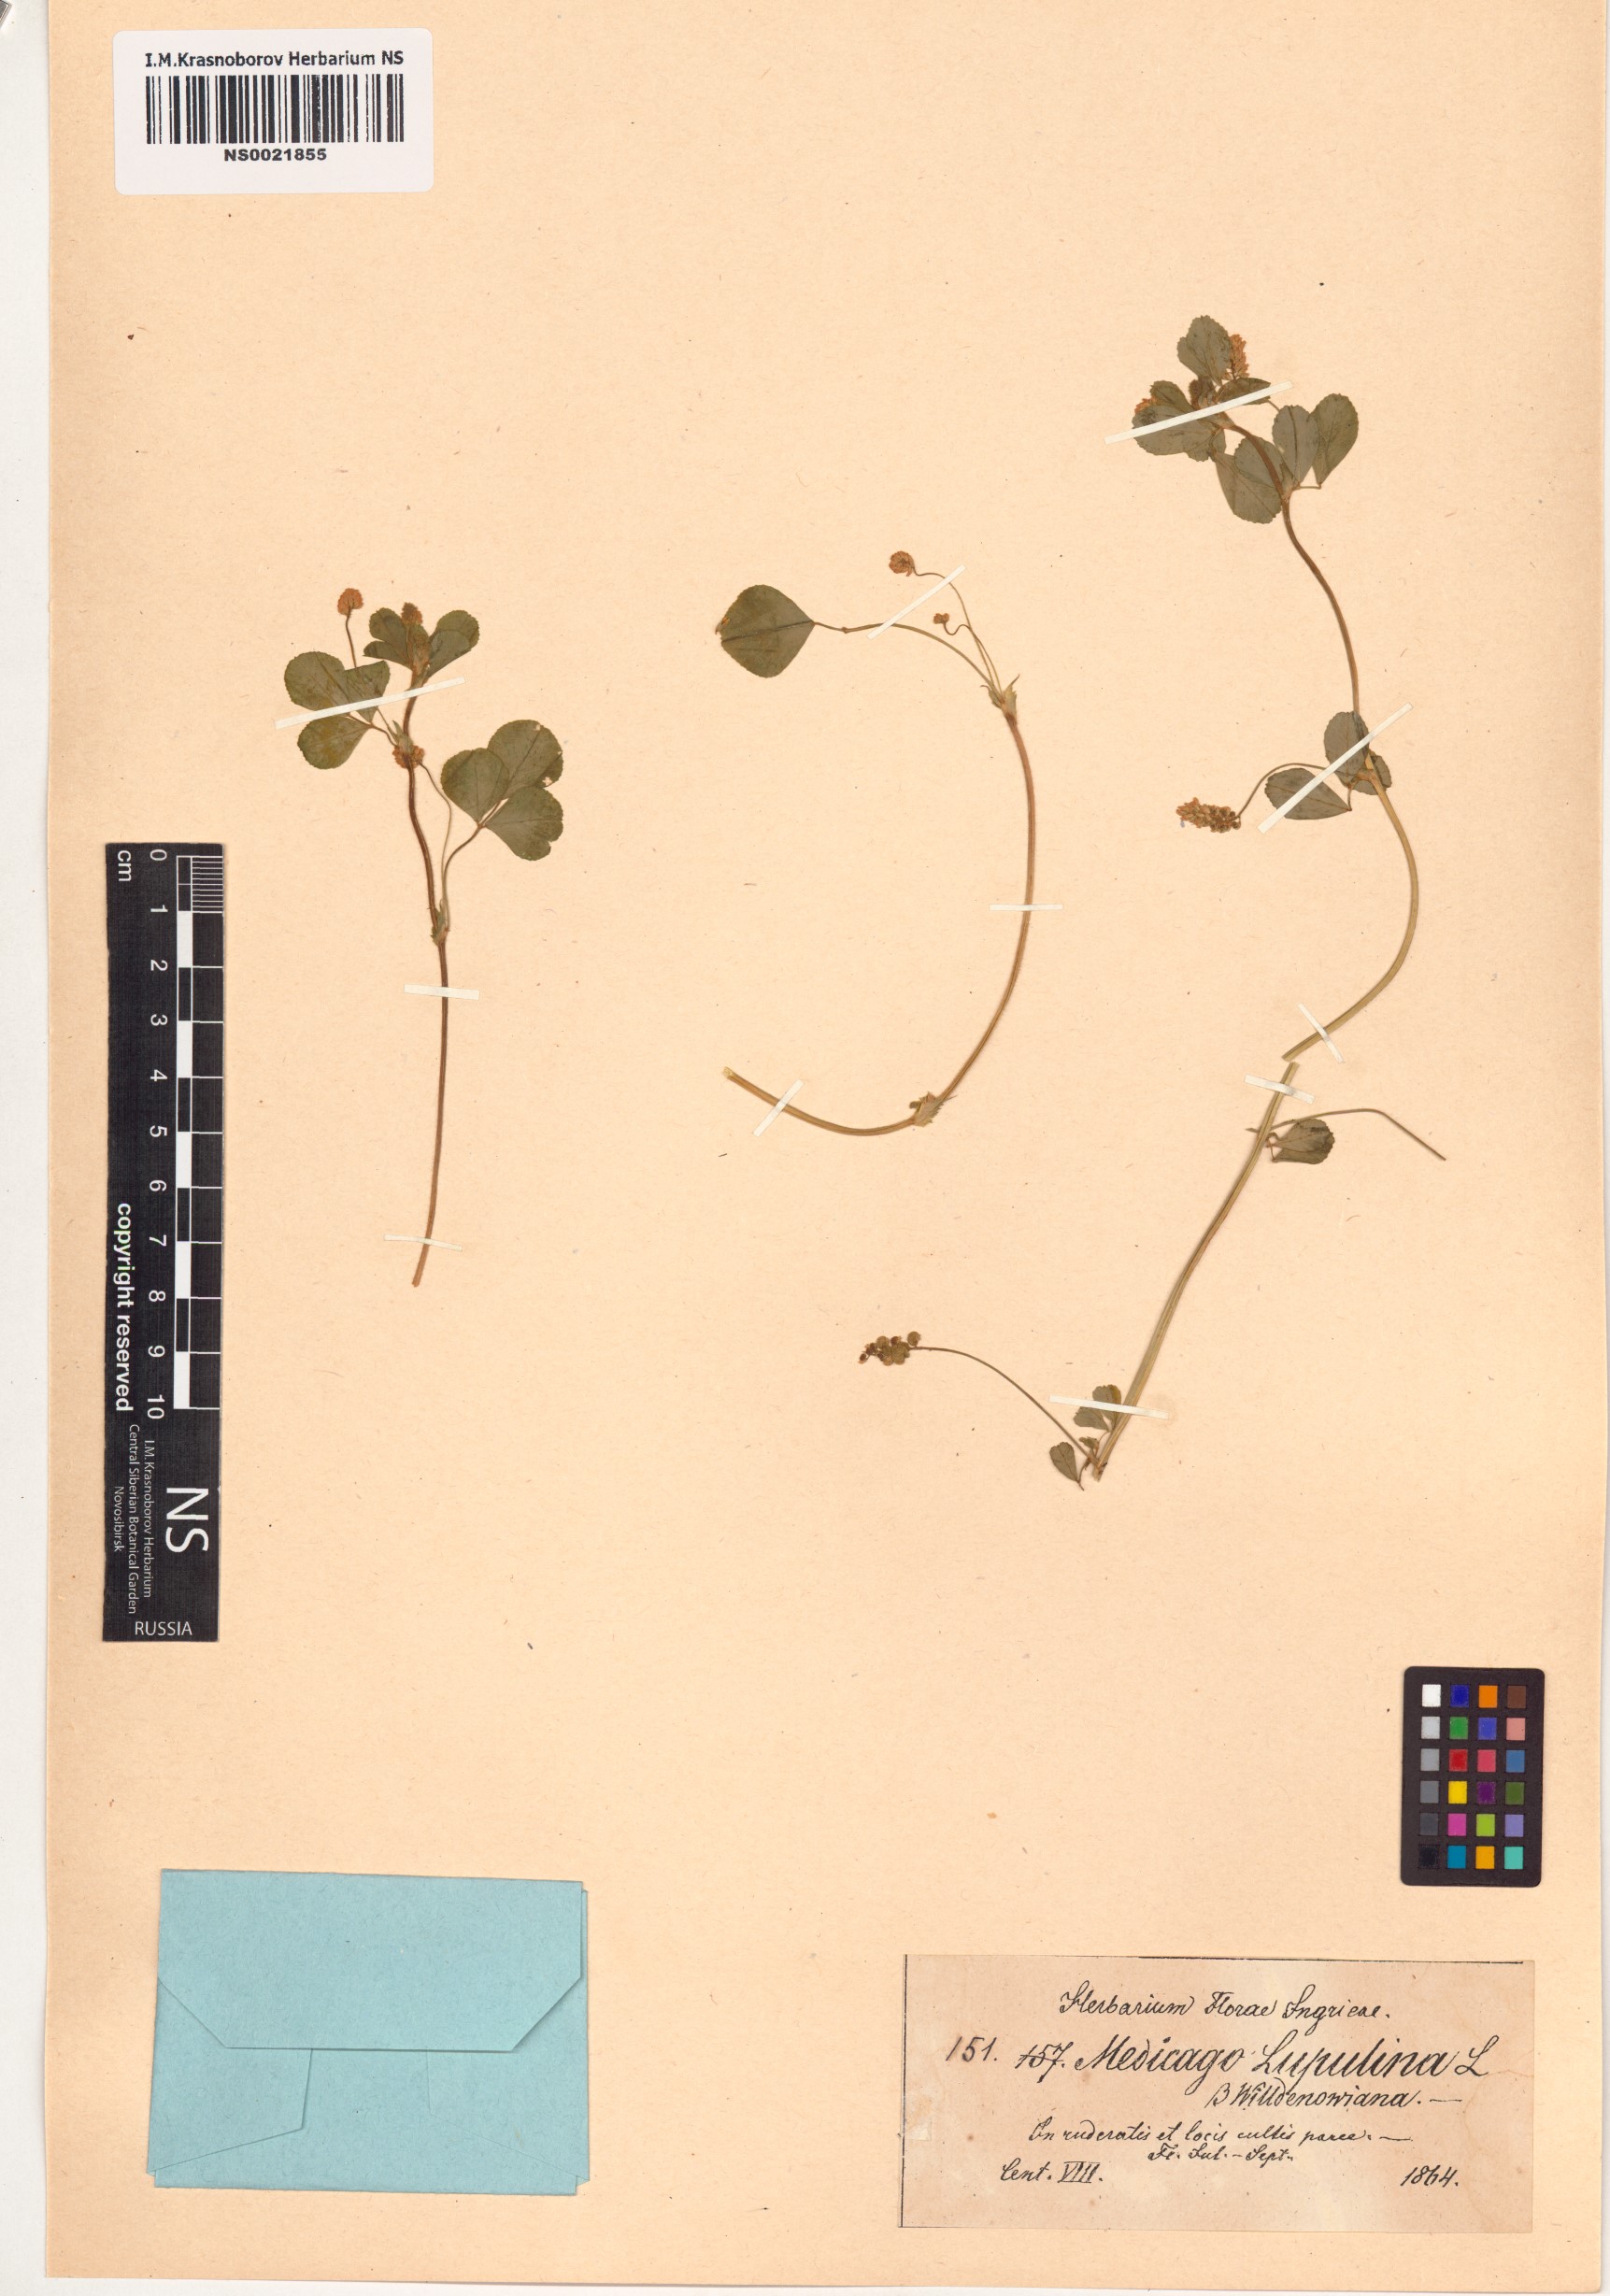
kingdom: Plantae
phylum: Tracheophyta
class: Magnoliopsida
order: Fabales
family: Fabaceae
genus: Medicago
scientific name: Medicago lupulina
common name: Black medick
